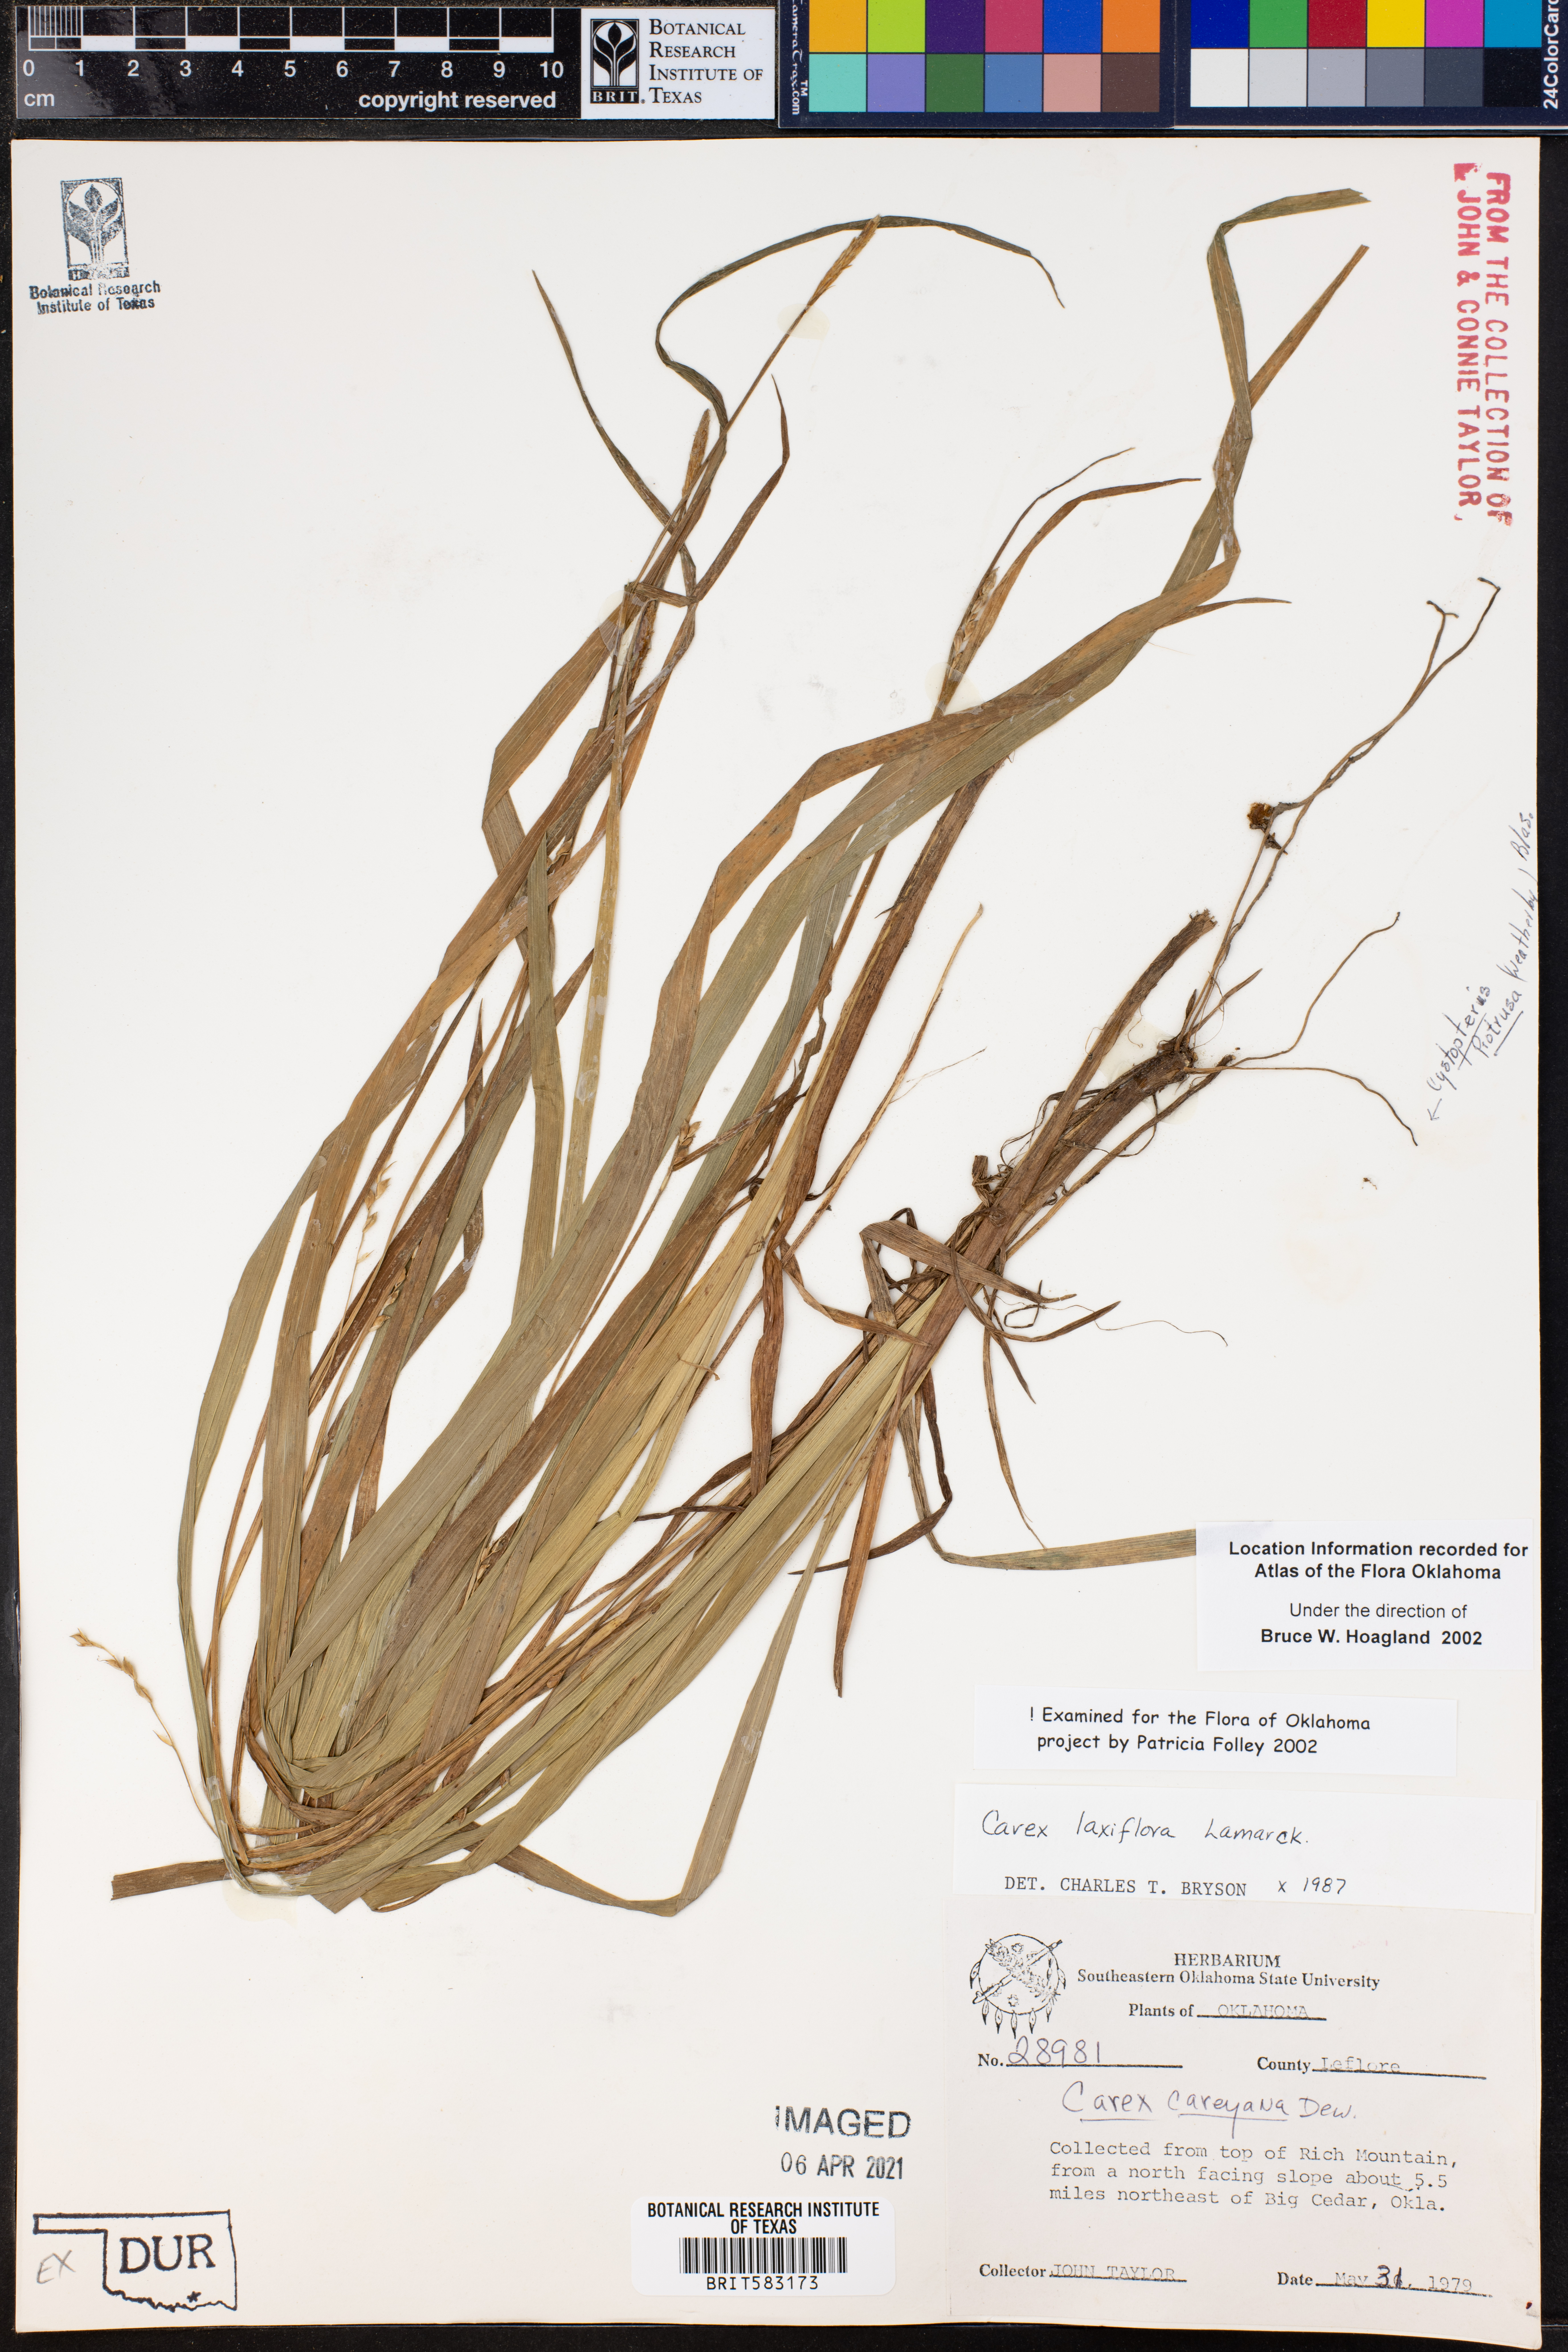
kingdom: Plantae
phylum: Tracheophyta
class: Liliopsida
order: Poales
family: Cyperaceae
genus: Carex
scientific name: Carex laxiflora
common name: Beech wood sedge
